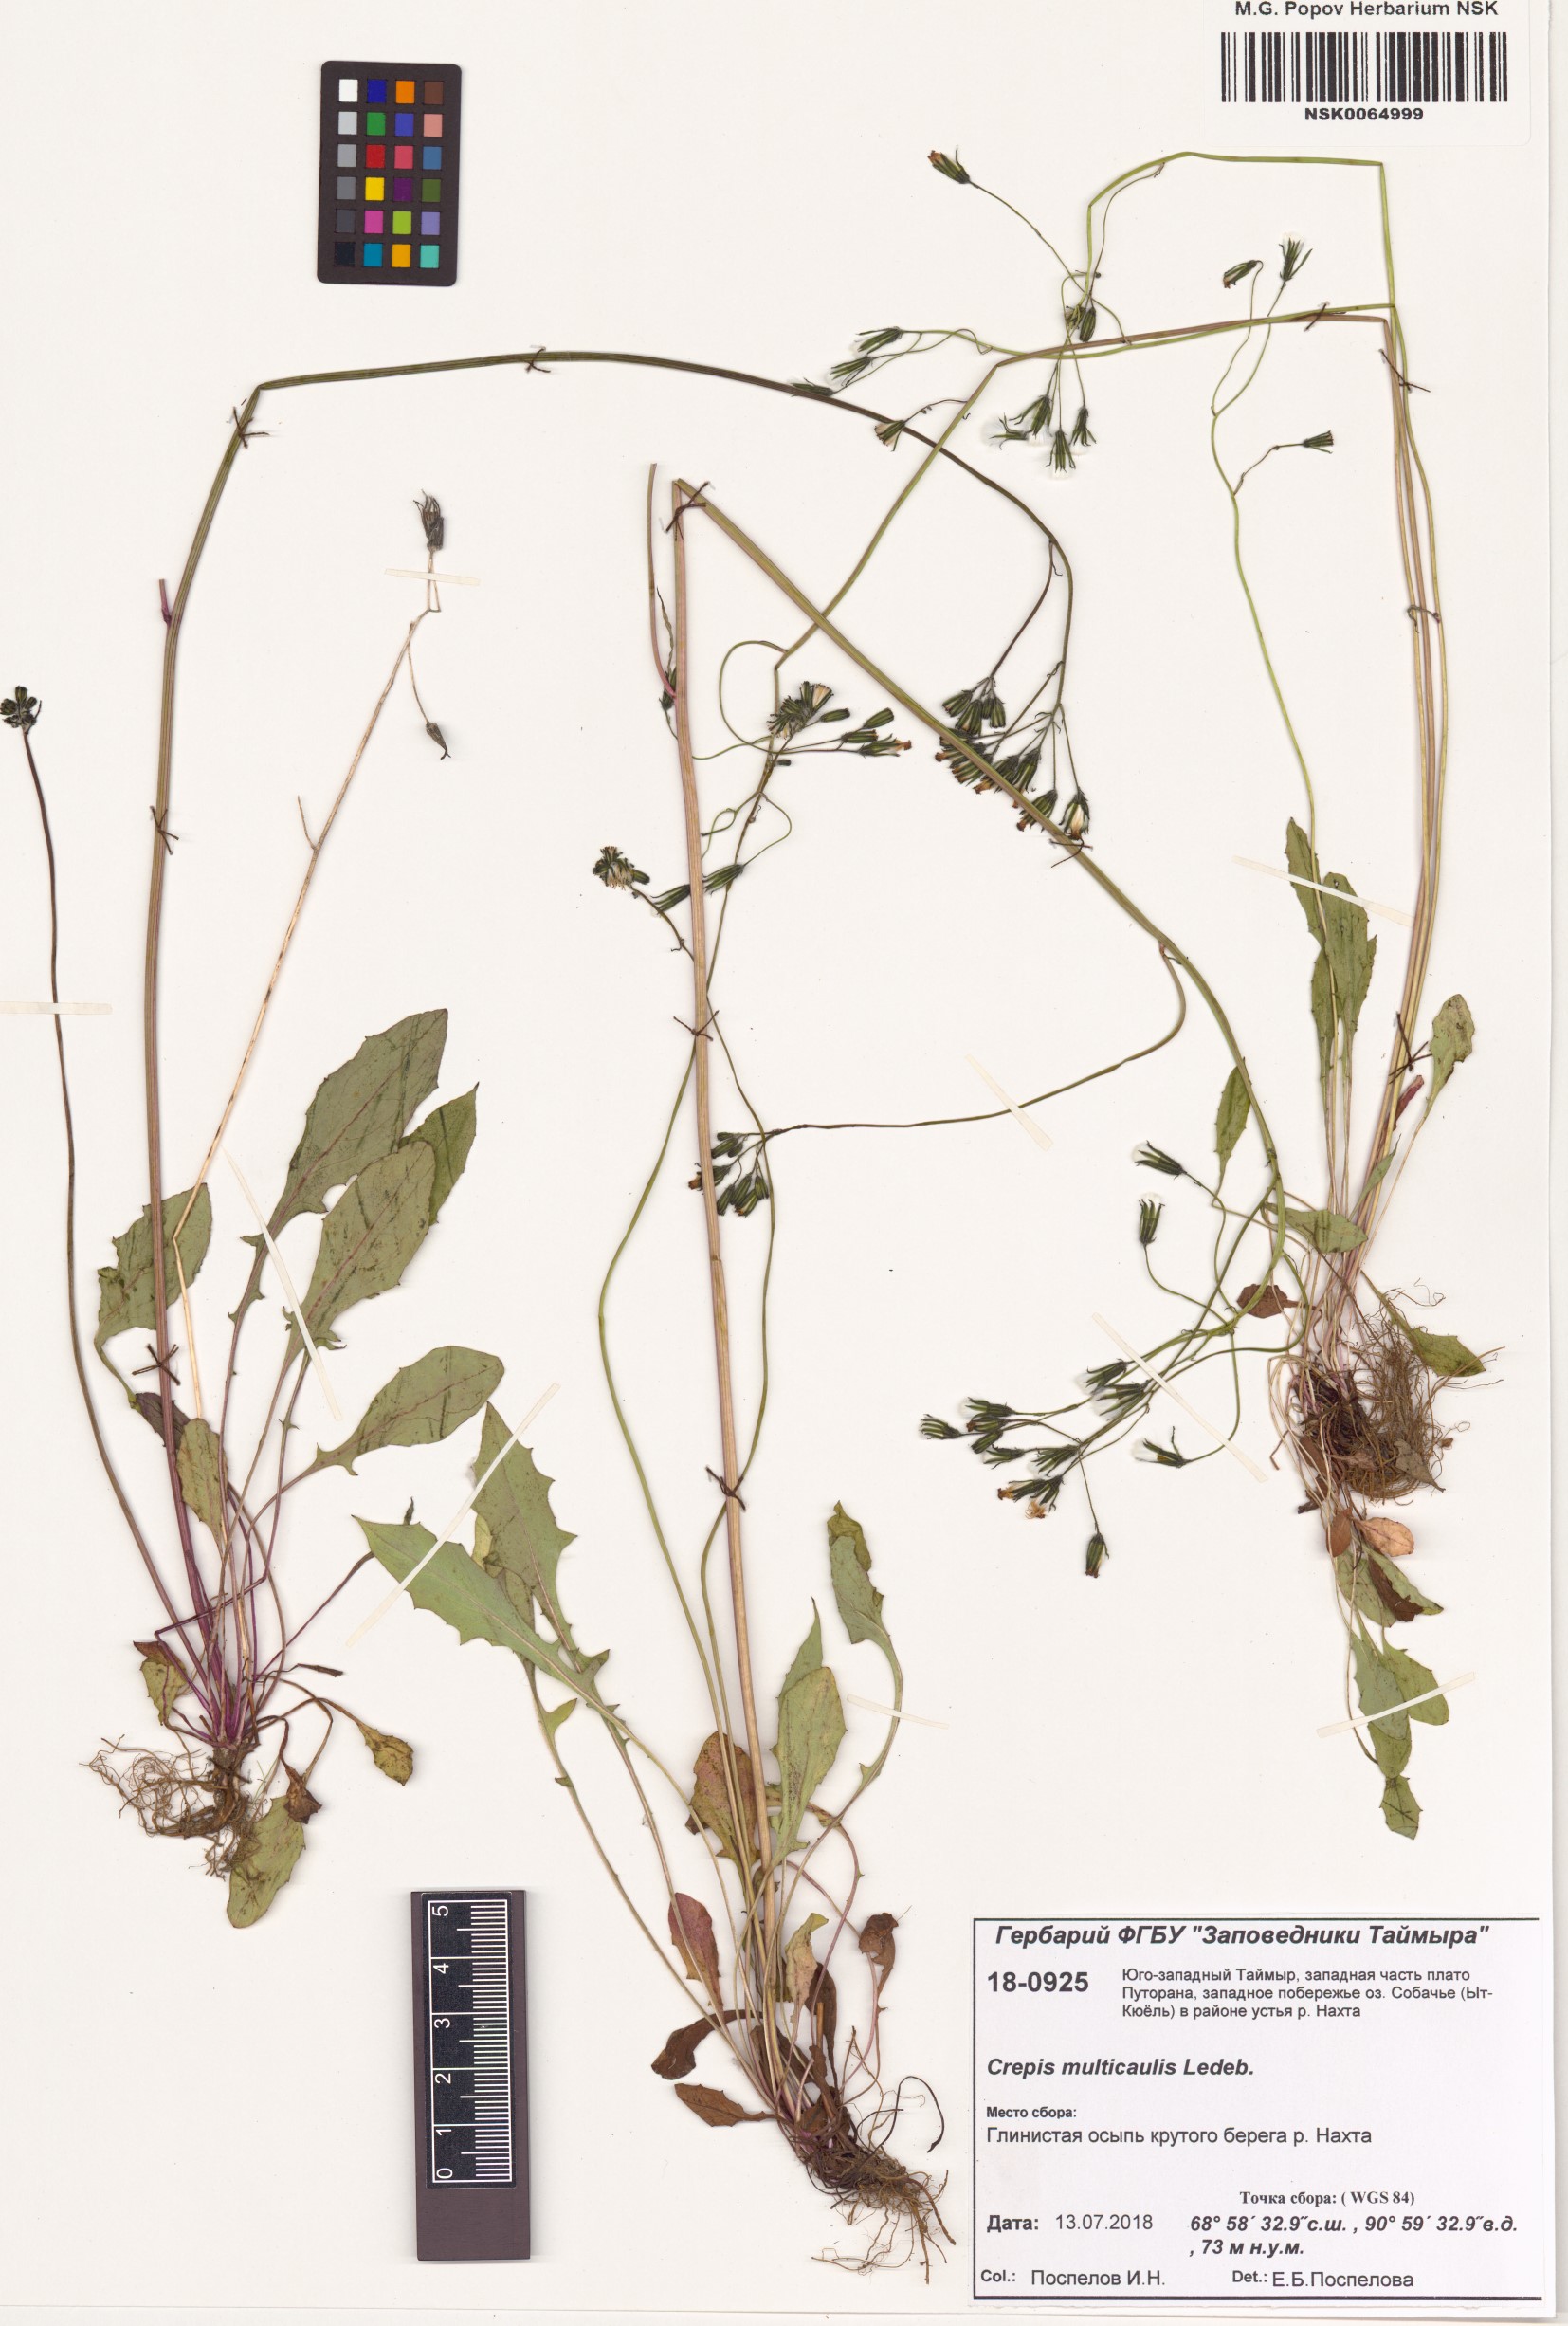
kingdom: Plantae
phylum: Tracheophyta
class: Magnoliopsida
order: Asterales
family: Asteraceae
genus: Crepis
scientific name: Crepis multicaulis
